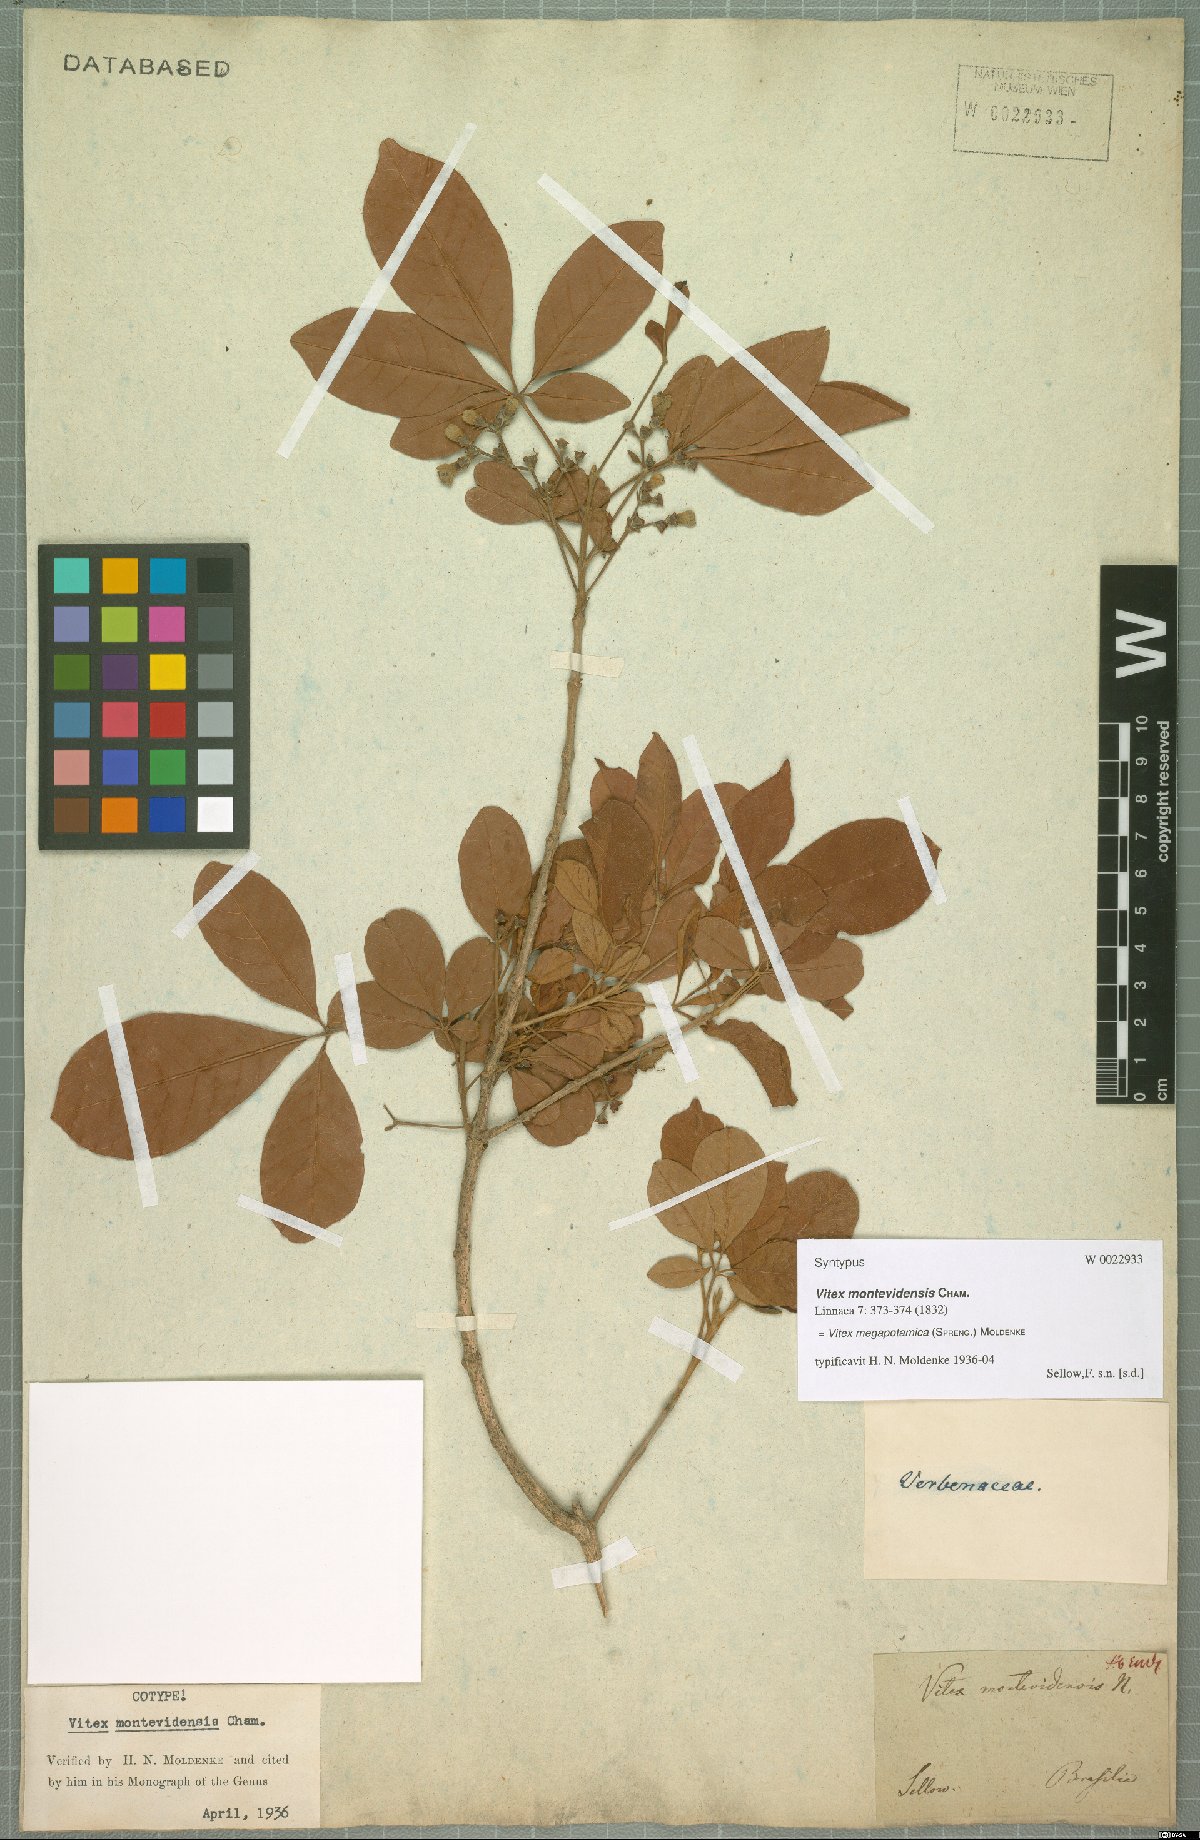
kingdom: Plantae
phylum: Tracheophyta
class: Magnoliopsida
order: Lamiales
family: Lamiaceae
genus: Vitex
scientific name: Vitex megapotamica
